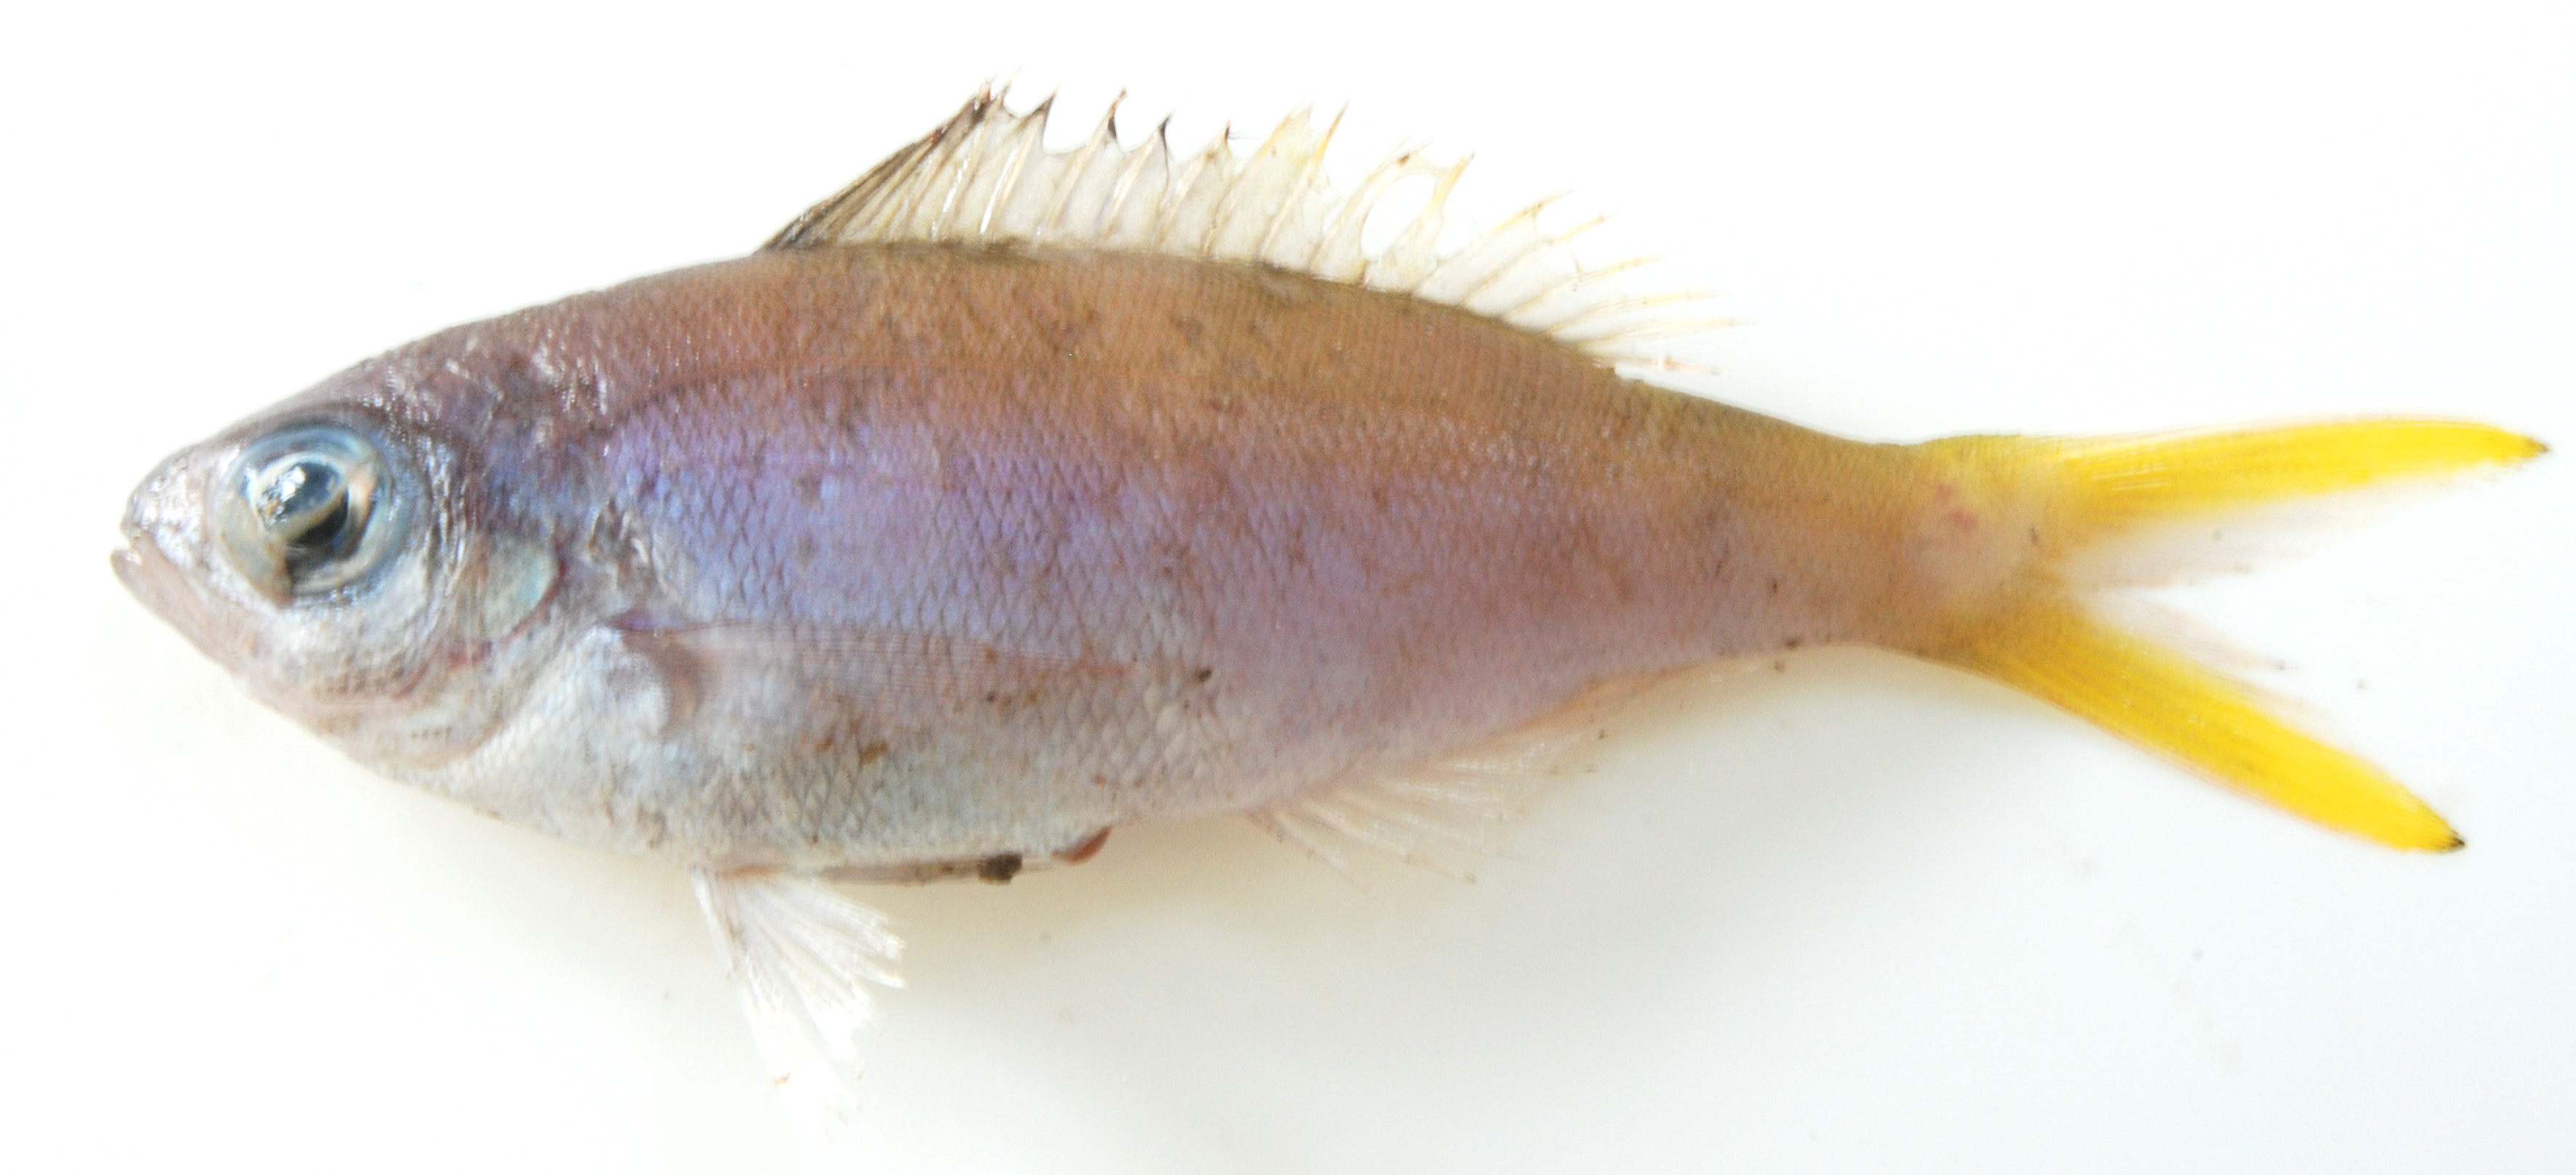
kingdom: Animalia
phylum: Chordata
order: Perciformes
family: Lutjanidae
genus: Paracaesio
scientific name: Paracaesio xanthura
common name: Yellowtail blue snapper
